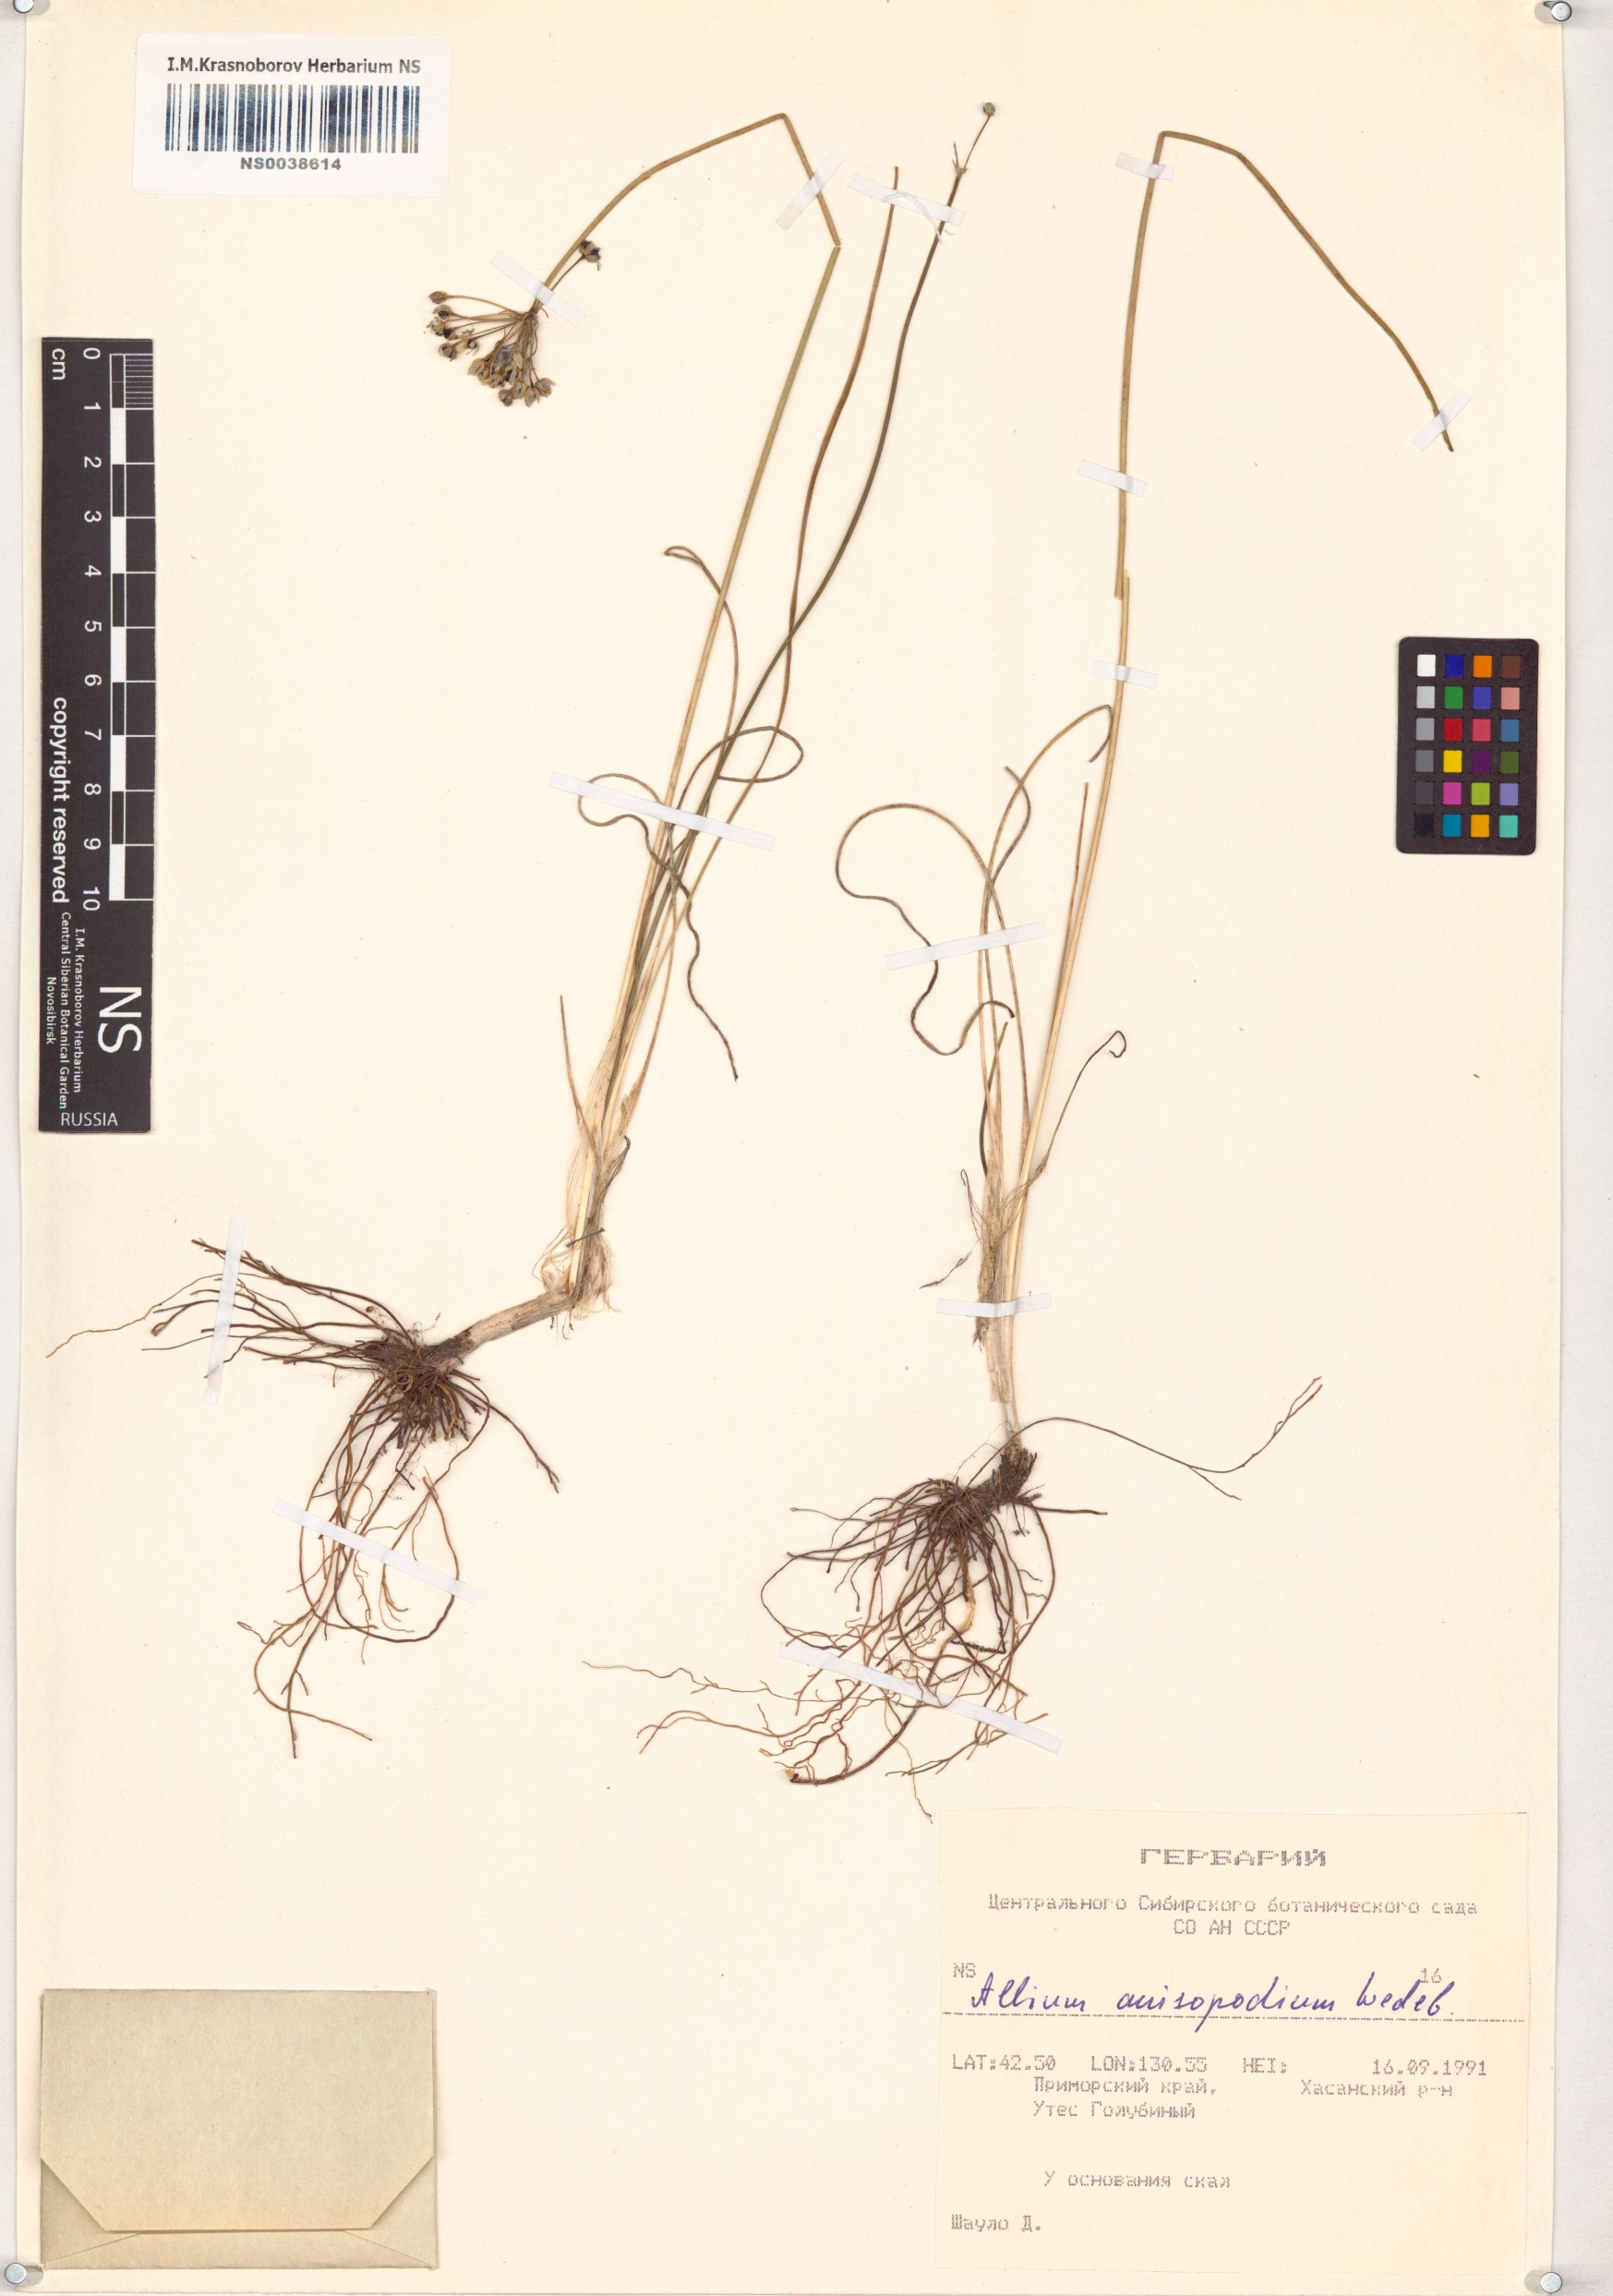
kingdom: Plantae
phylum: Tracheophyta
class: Liliopsida
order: Asparagales
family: Amaryllidaceae
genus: Allium
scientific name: Allium anisopodium
